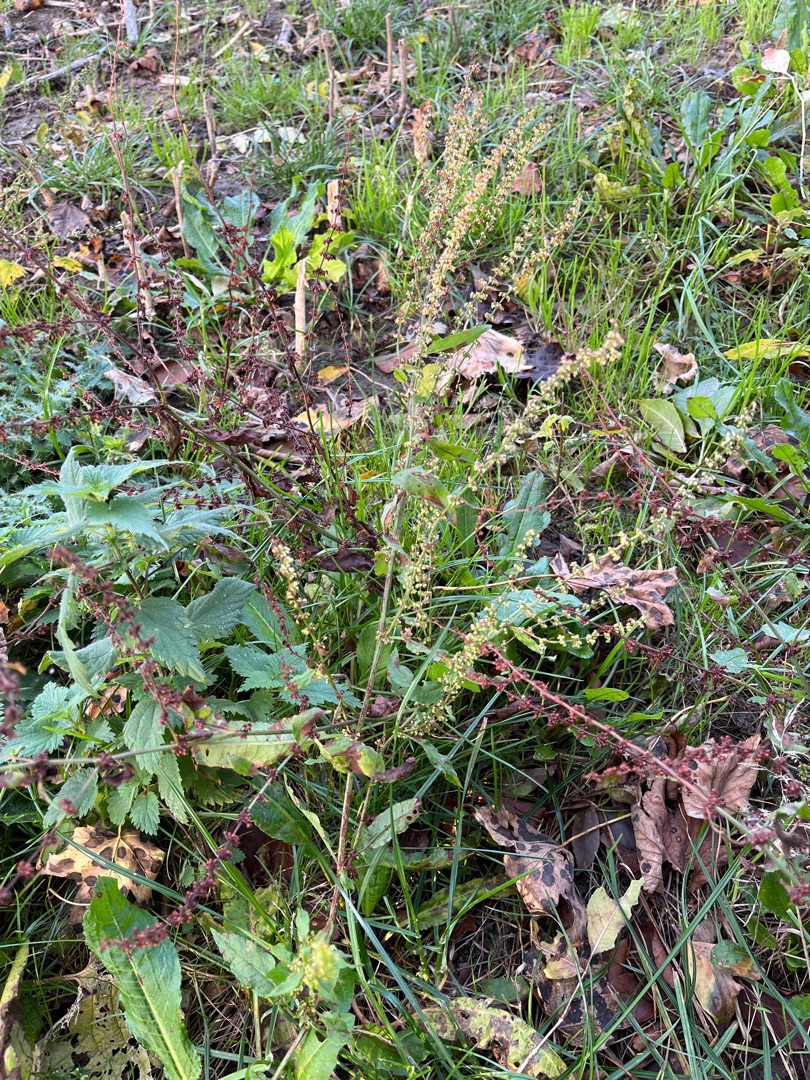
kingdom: Plantae
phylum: Tracheophyta
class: Magnoliopsida
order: Caryophyllales
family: Polygonaceae
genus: Rumex
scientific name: Rumex sanguineus
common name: Skov-skræppe
